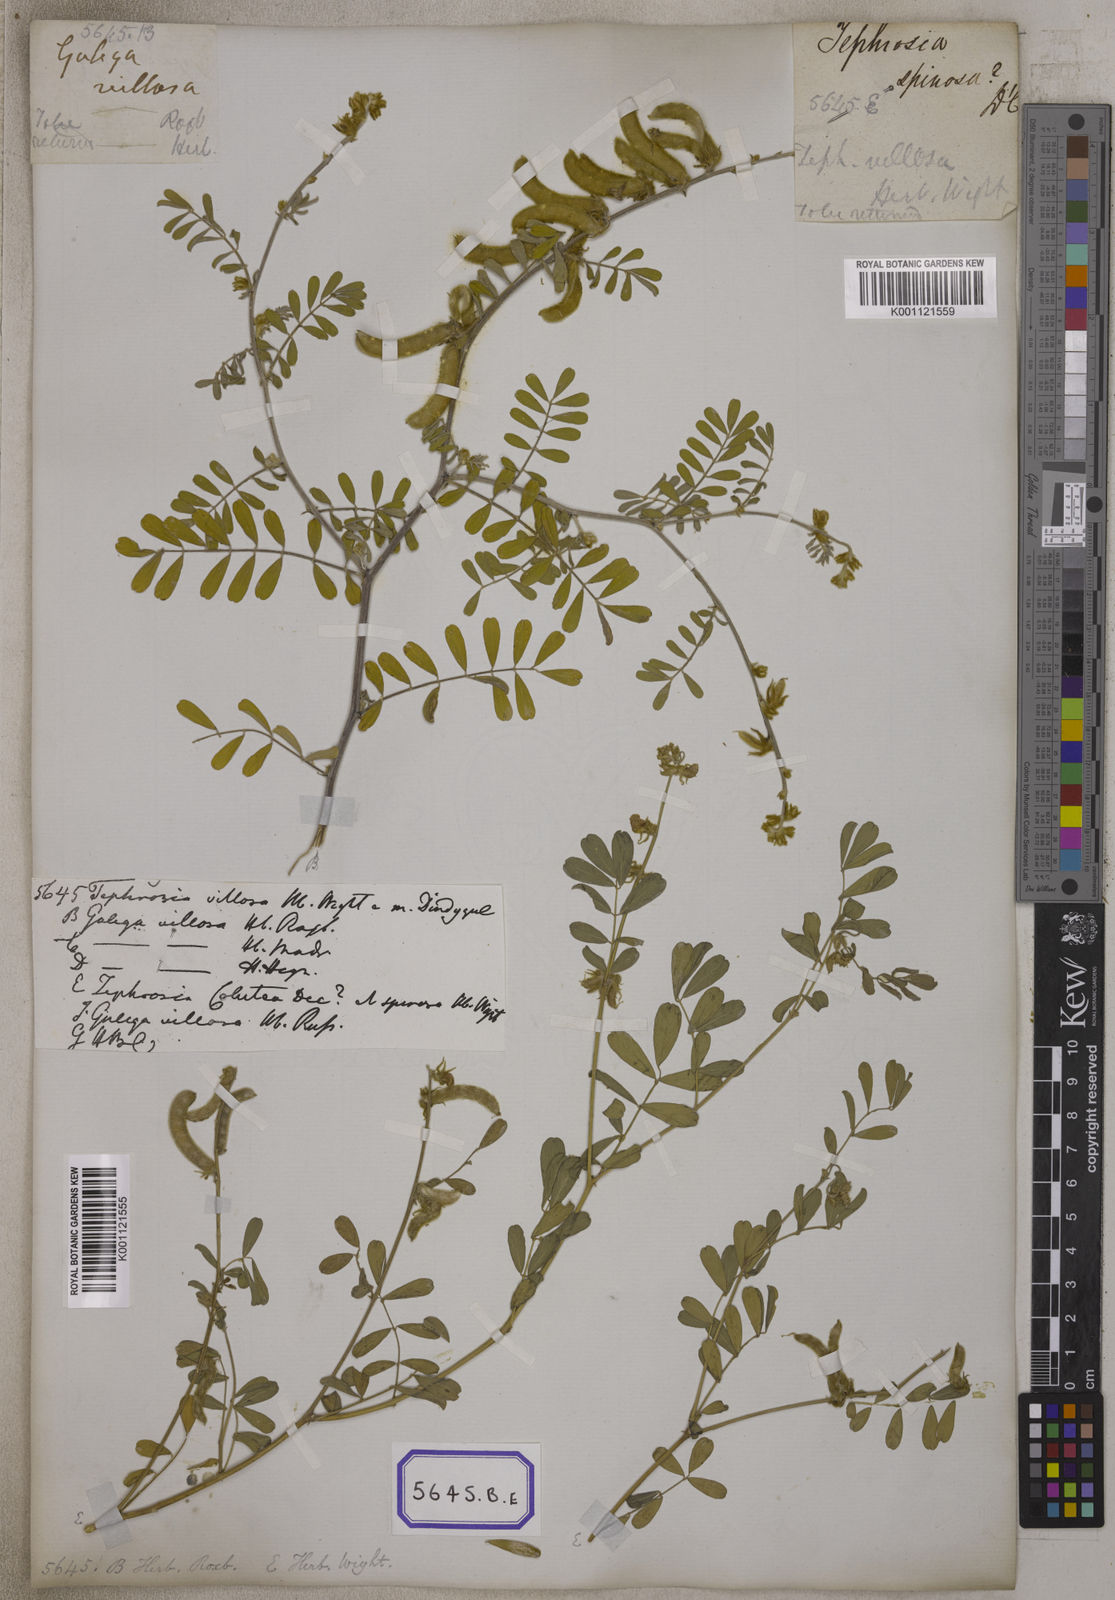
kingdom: Plantae
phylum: Tracheophyta
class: Magnoliopsida
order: Fabales
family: Fabaceae
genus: Tephrosia
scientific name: Tephrosia villosa
